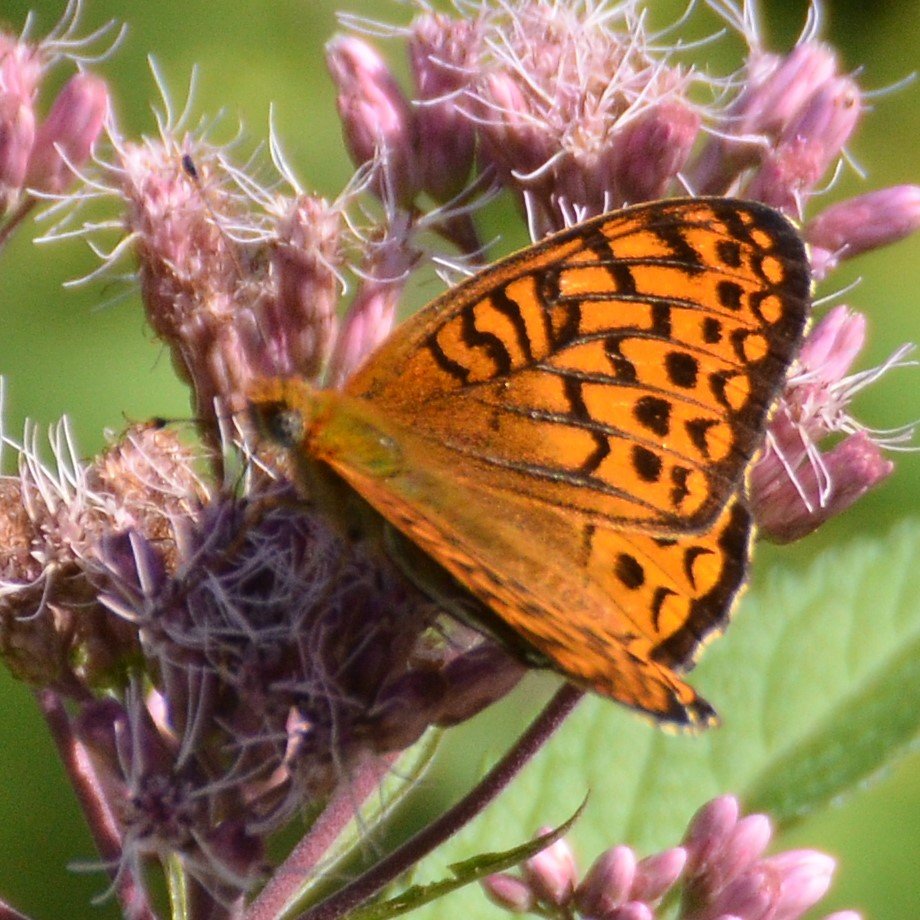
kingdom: Animalia
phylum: Arthropoda
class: Insecta
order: Lepidoptera
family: Nymphalidae
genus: Speyeria
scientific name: Speyeria aphrodite
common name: Aphrodite Fritillary
